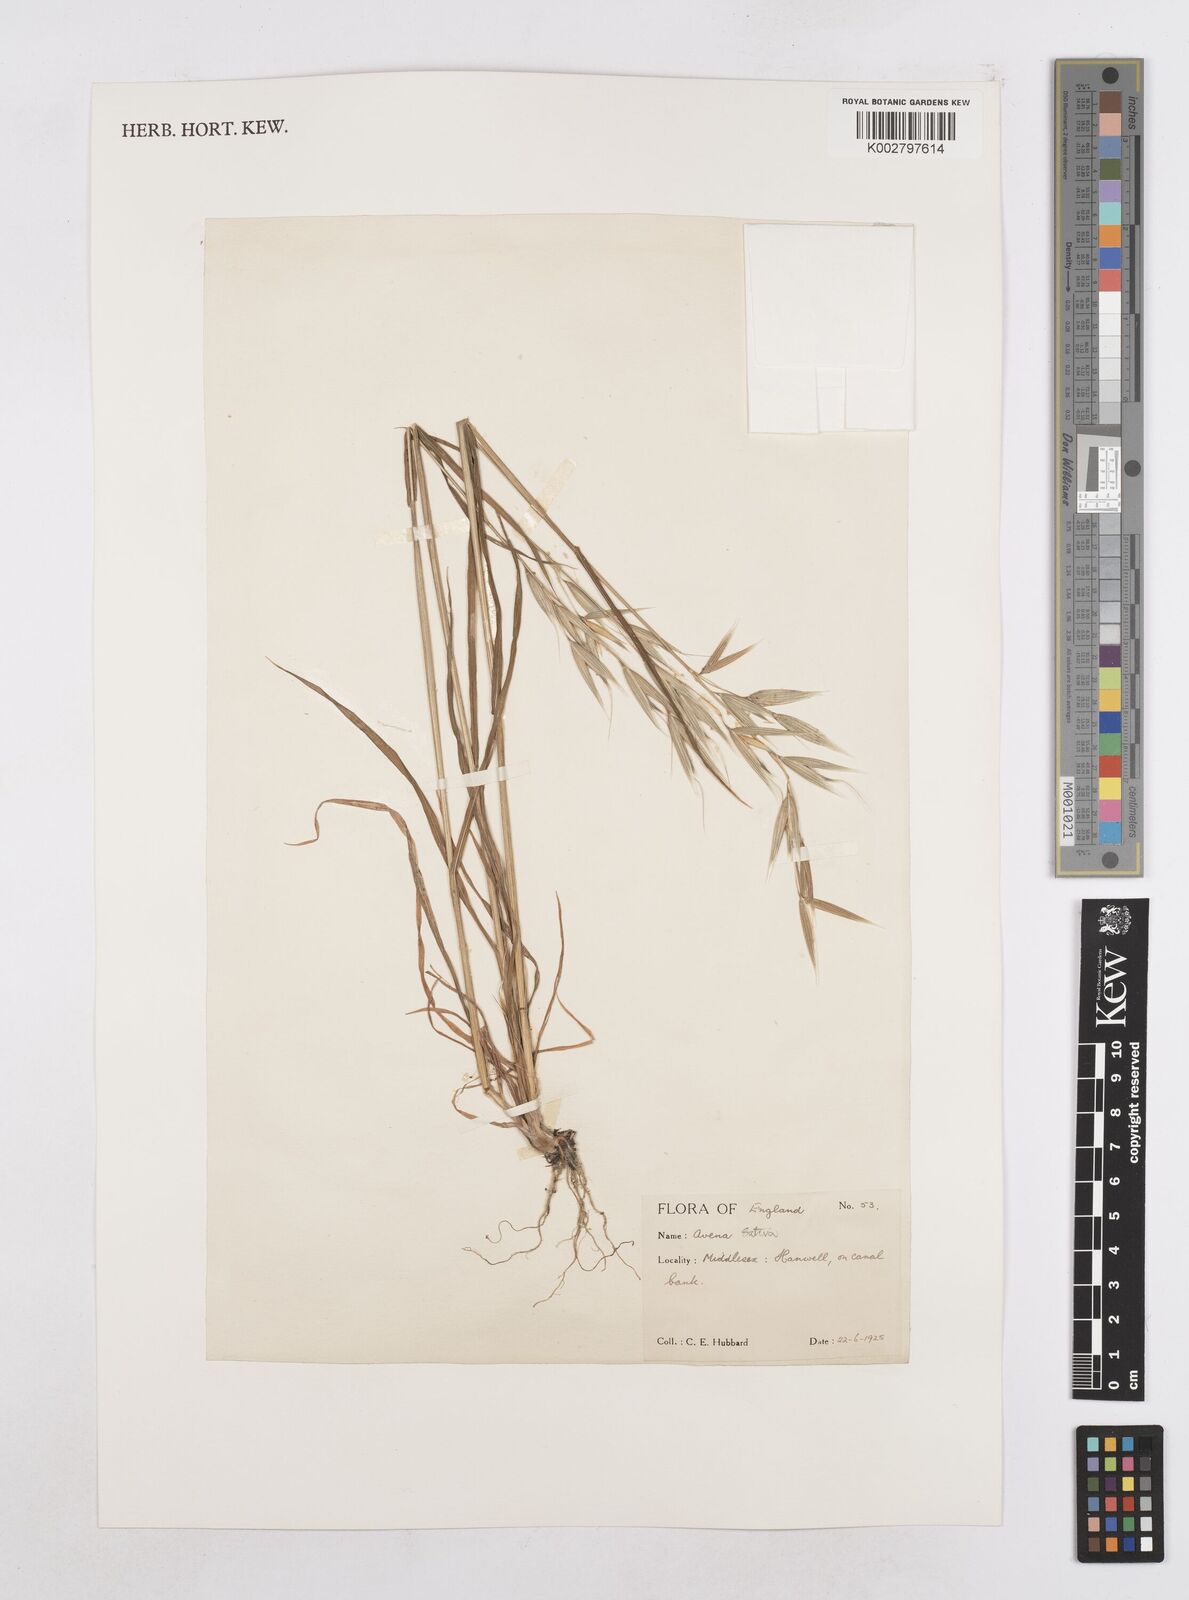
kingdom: Plantae
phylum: Tracheophyta
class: Liliopsida
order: Poales
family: Poaceae
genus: Avena
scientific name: Avena sativa
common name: Oat
